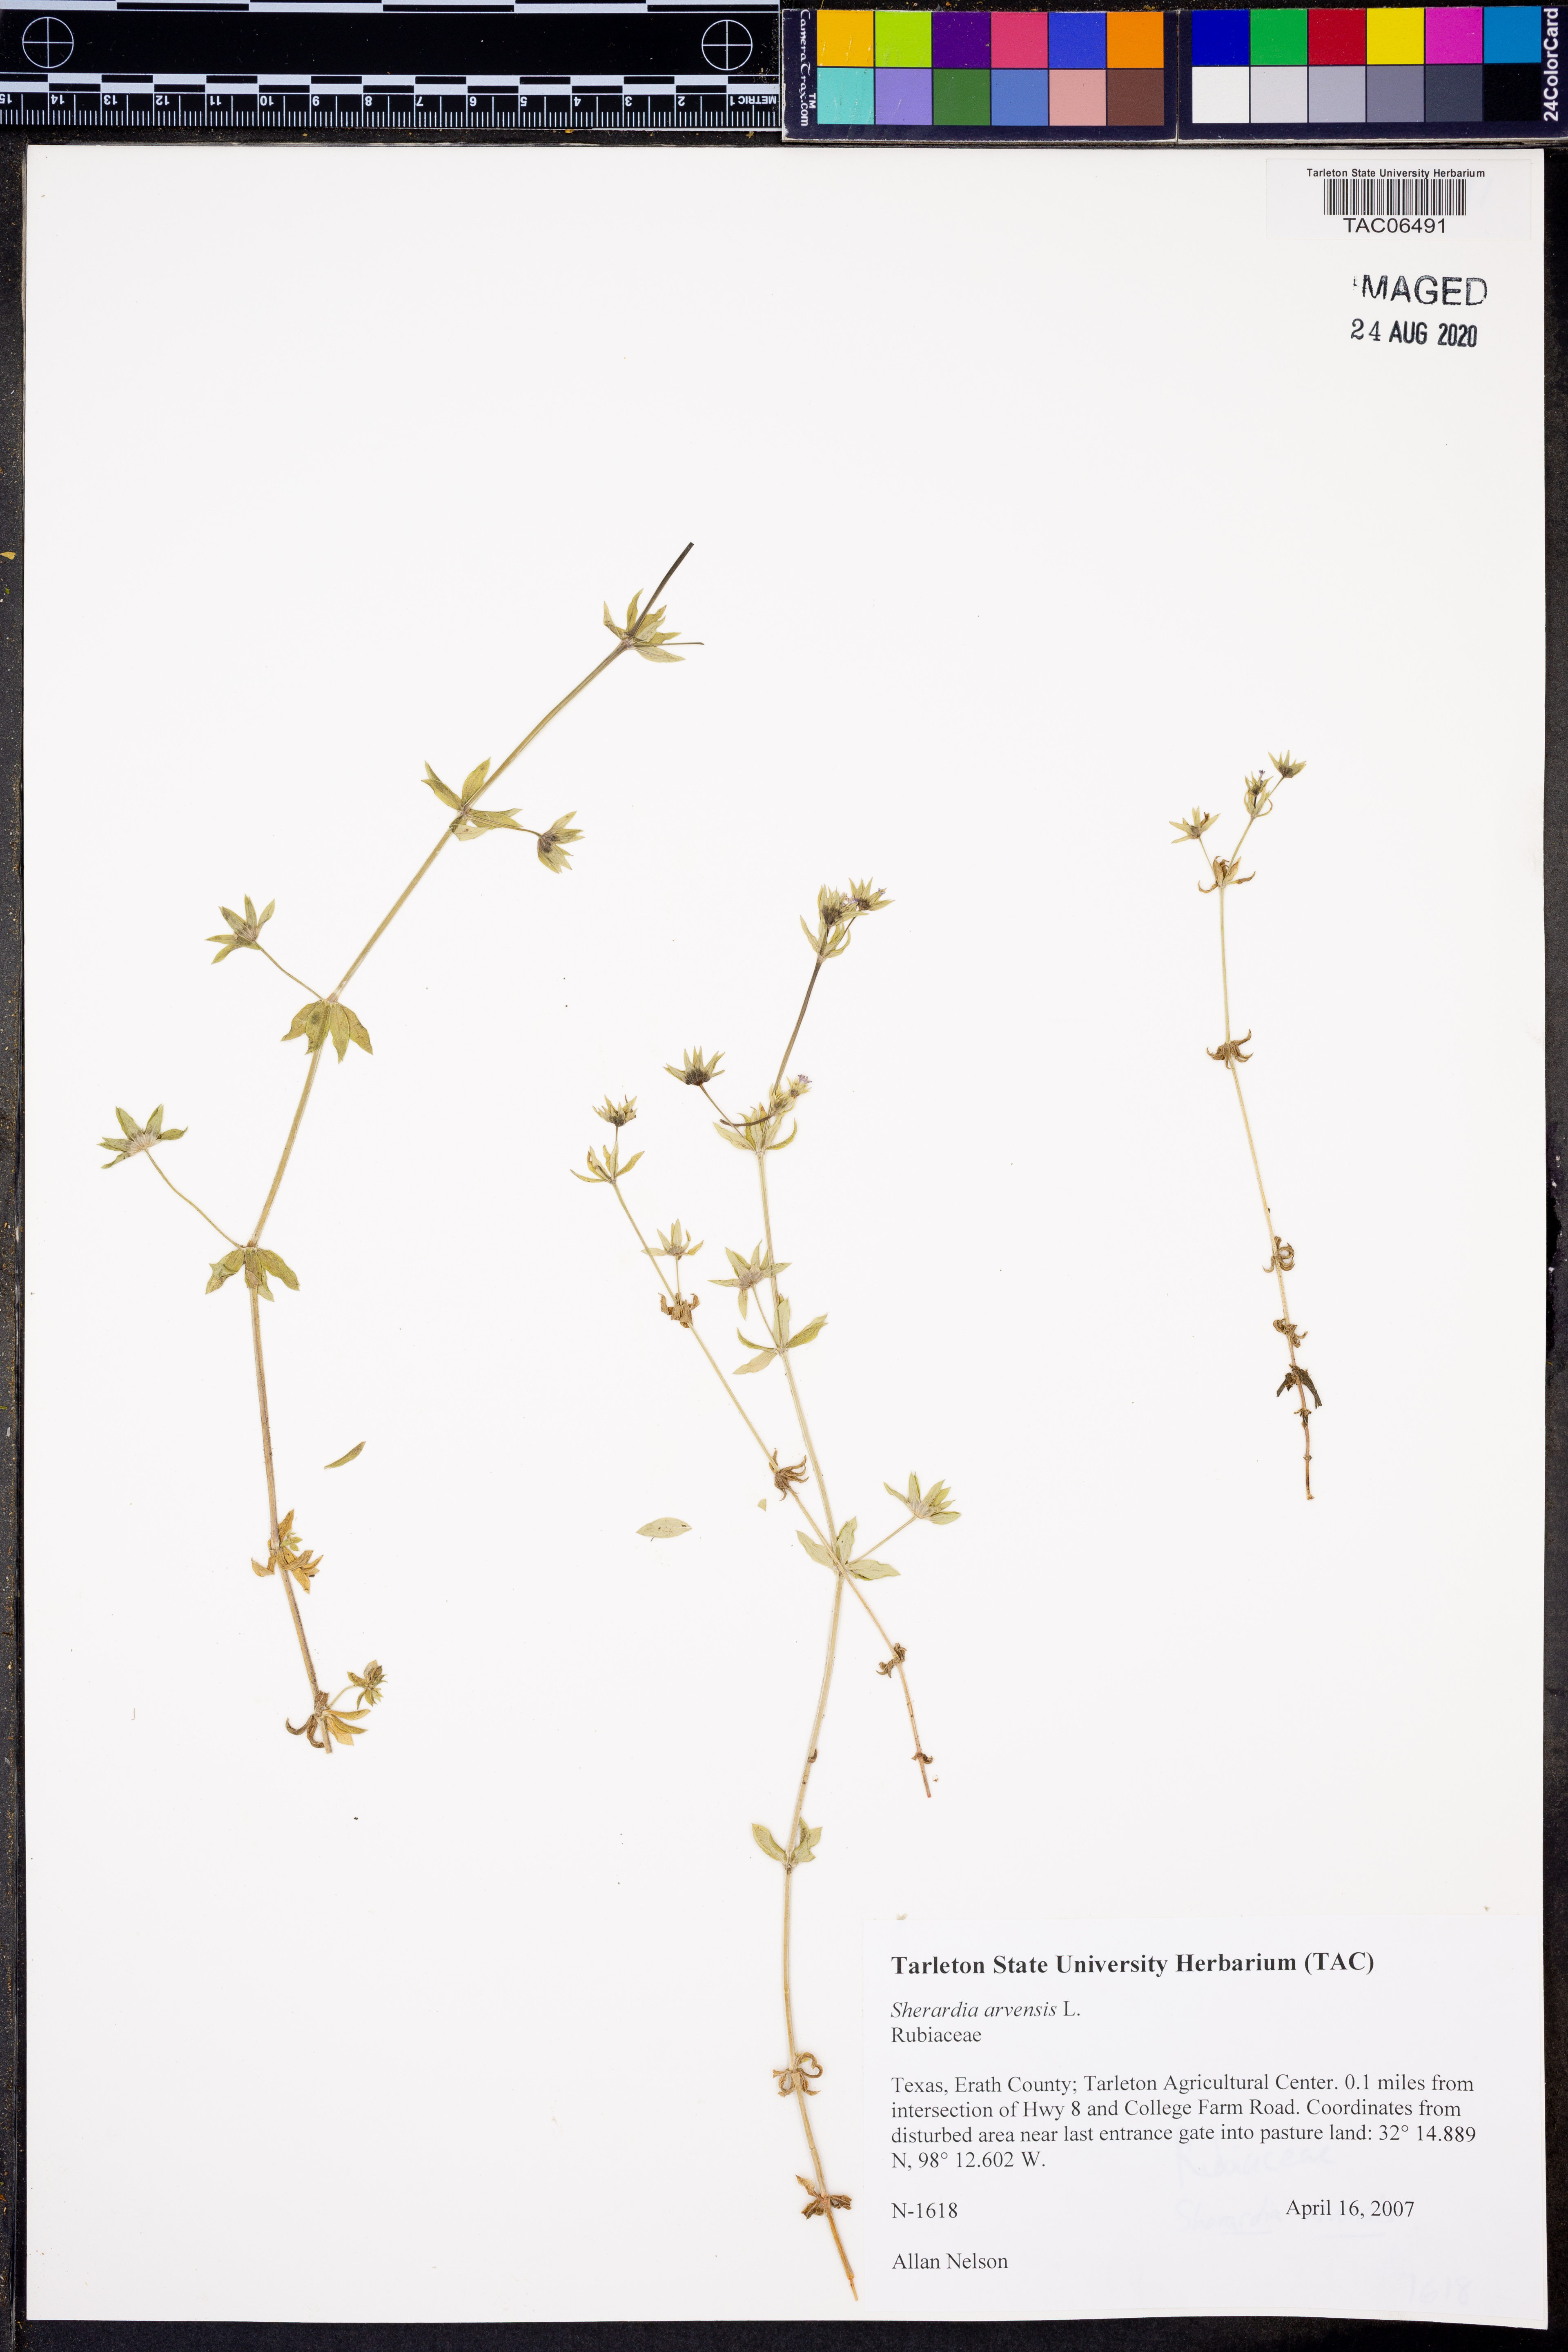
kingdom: Plantae
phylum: Tracheophyta
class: Magnoliopsida
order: Gentianales
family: Rubiaceae
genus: Sherardia
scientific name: Sherardia arvensis
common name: Field madder
